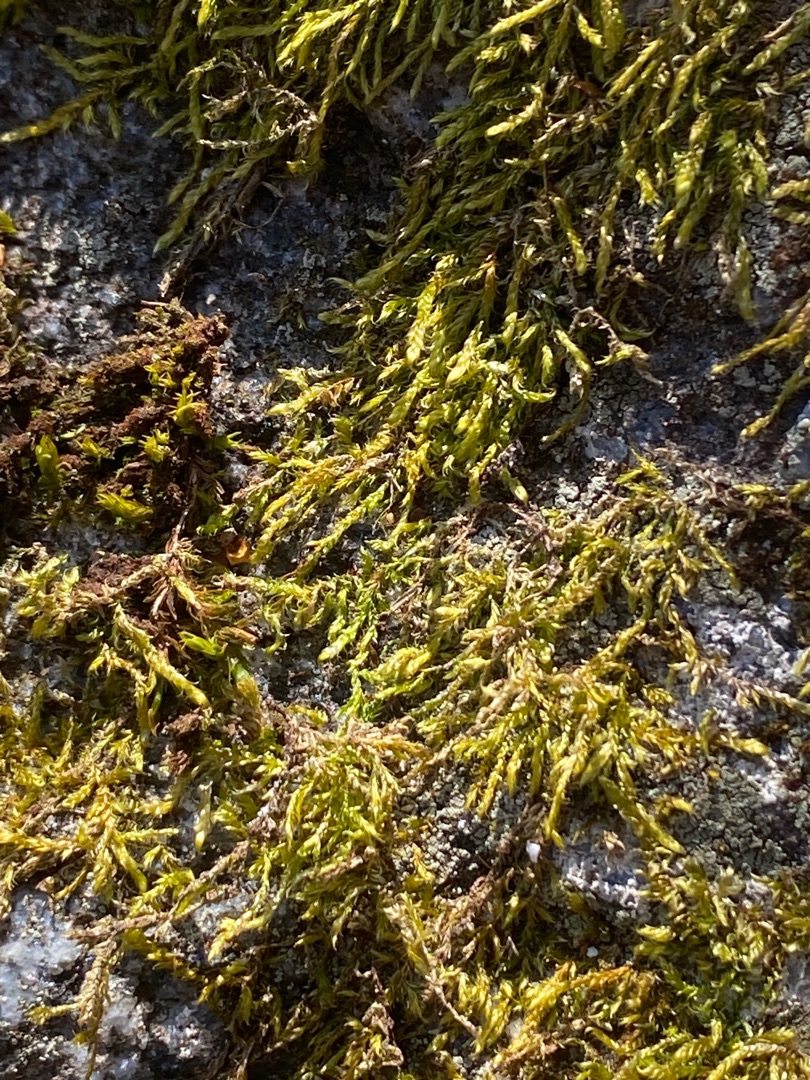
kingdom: Plantae
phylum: Bryophyta
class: Bryopsida
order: Hypnales
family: Hypnaceae
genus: Hypnum
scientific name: Hypnum
